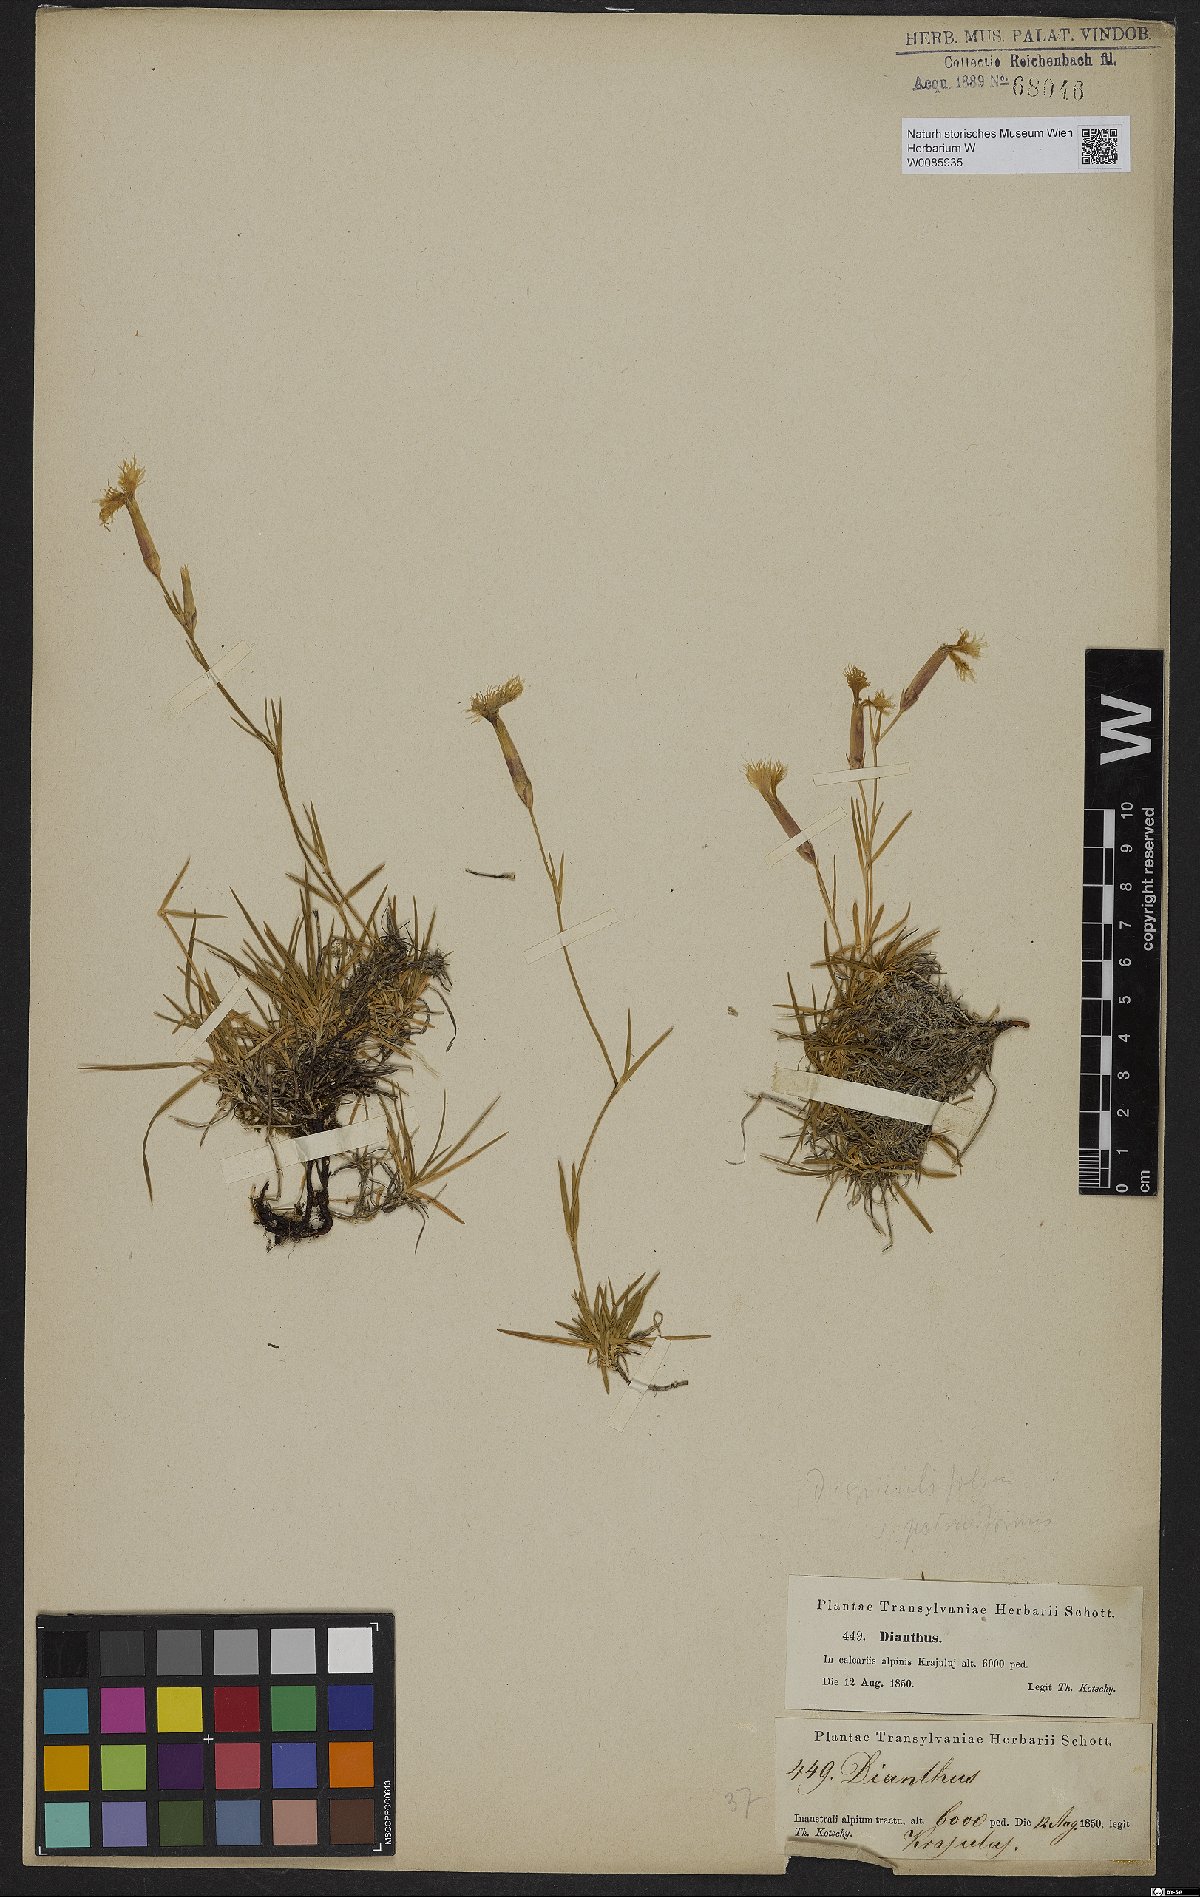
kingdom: Plantae
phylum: Tracheophyta
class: Magnoliopsida
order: Caryophyllales
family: Caryophyllaceae
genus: Dianthus
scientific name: Dianthus spiculifolius
